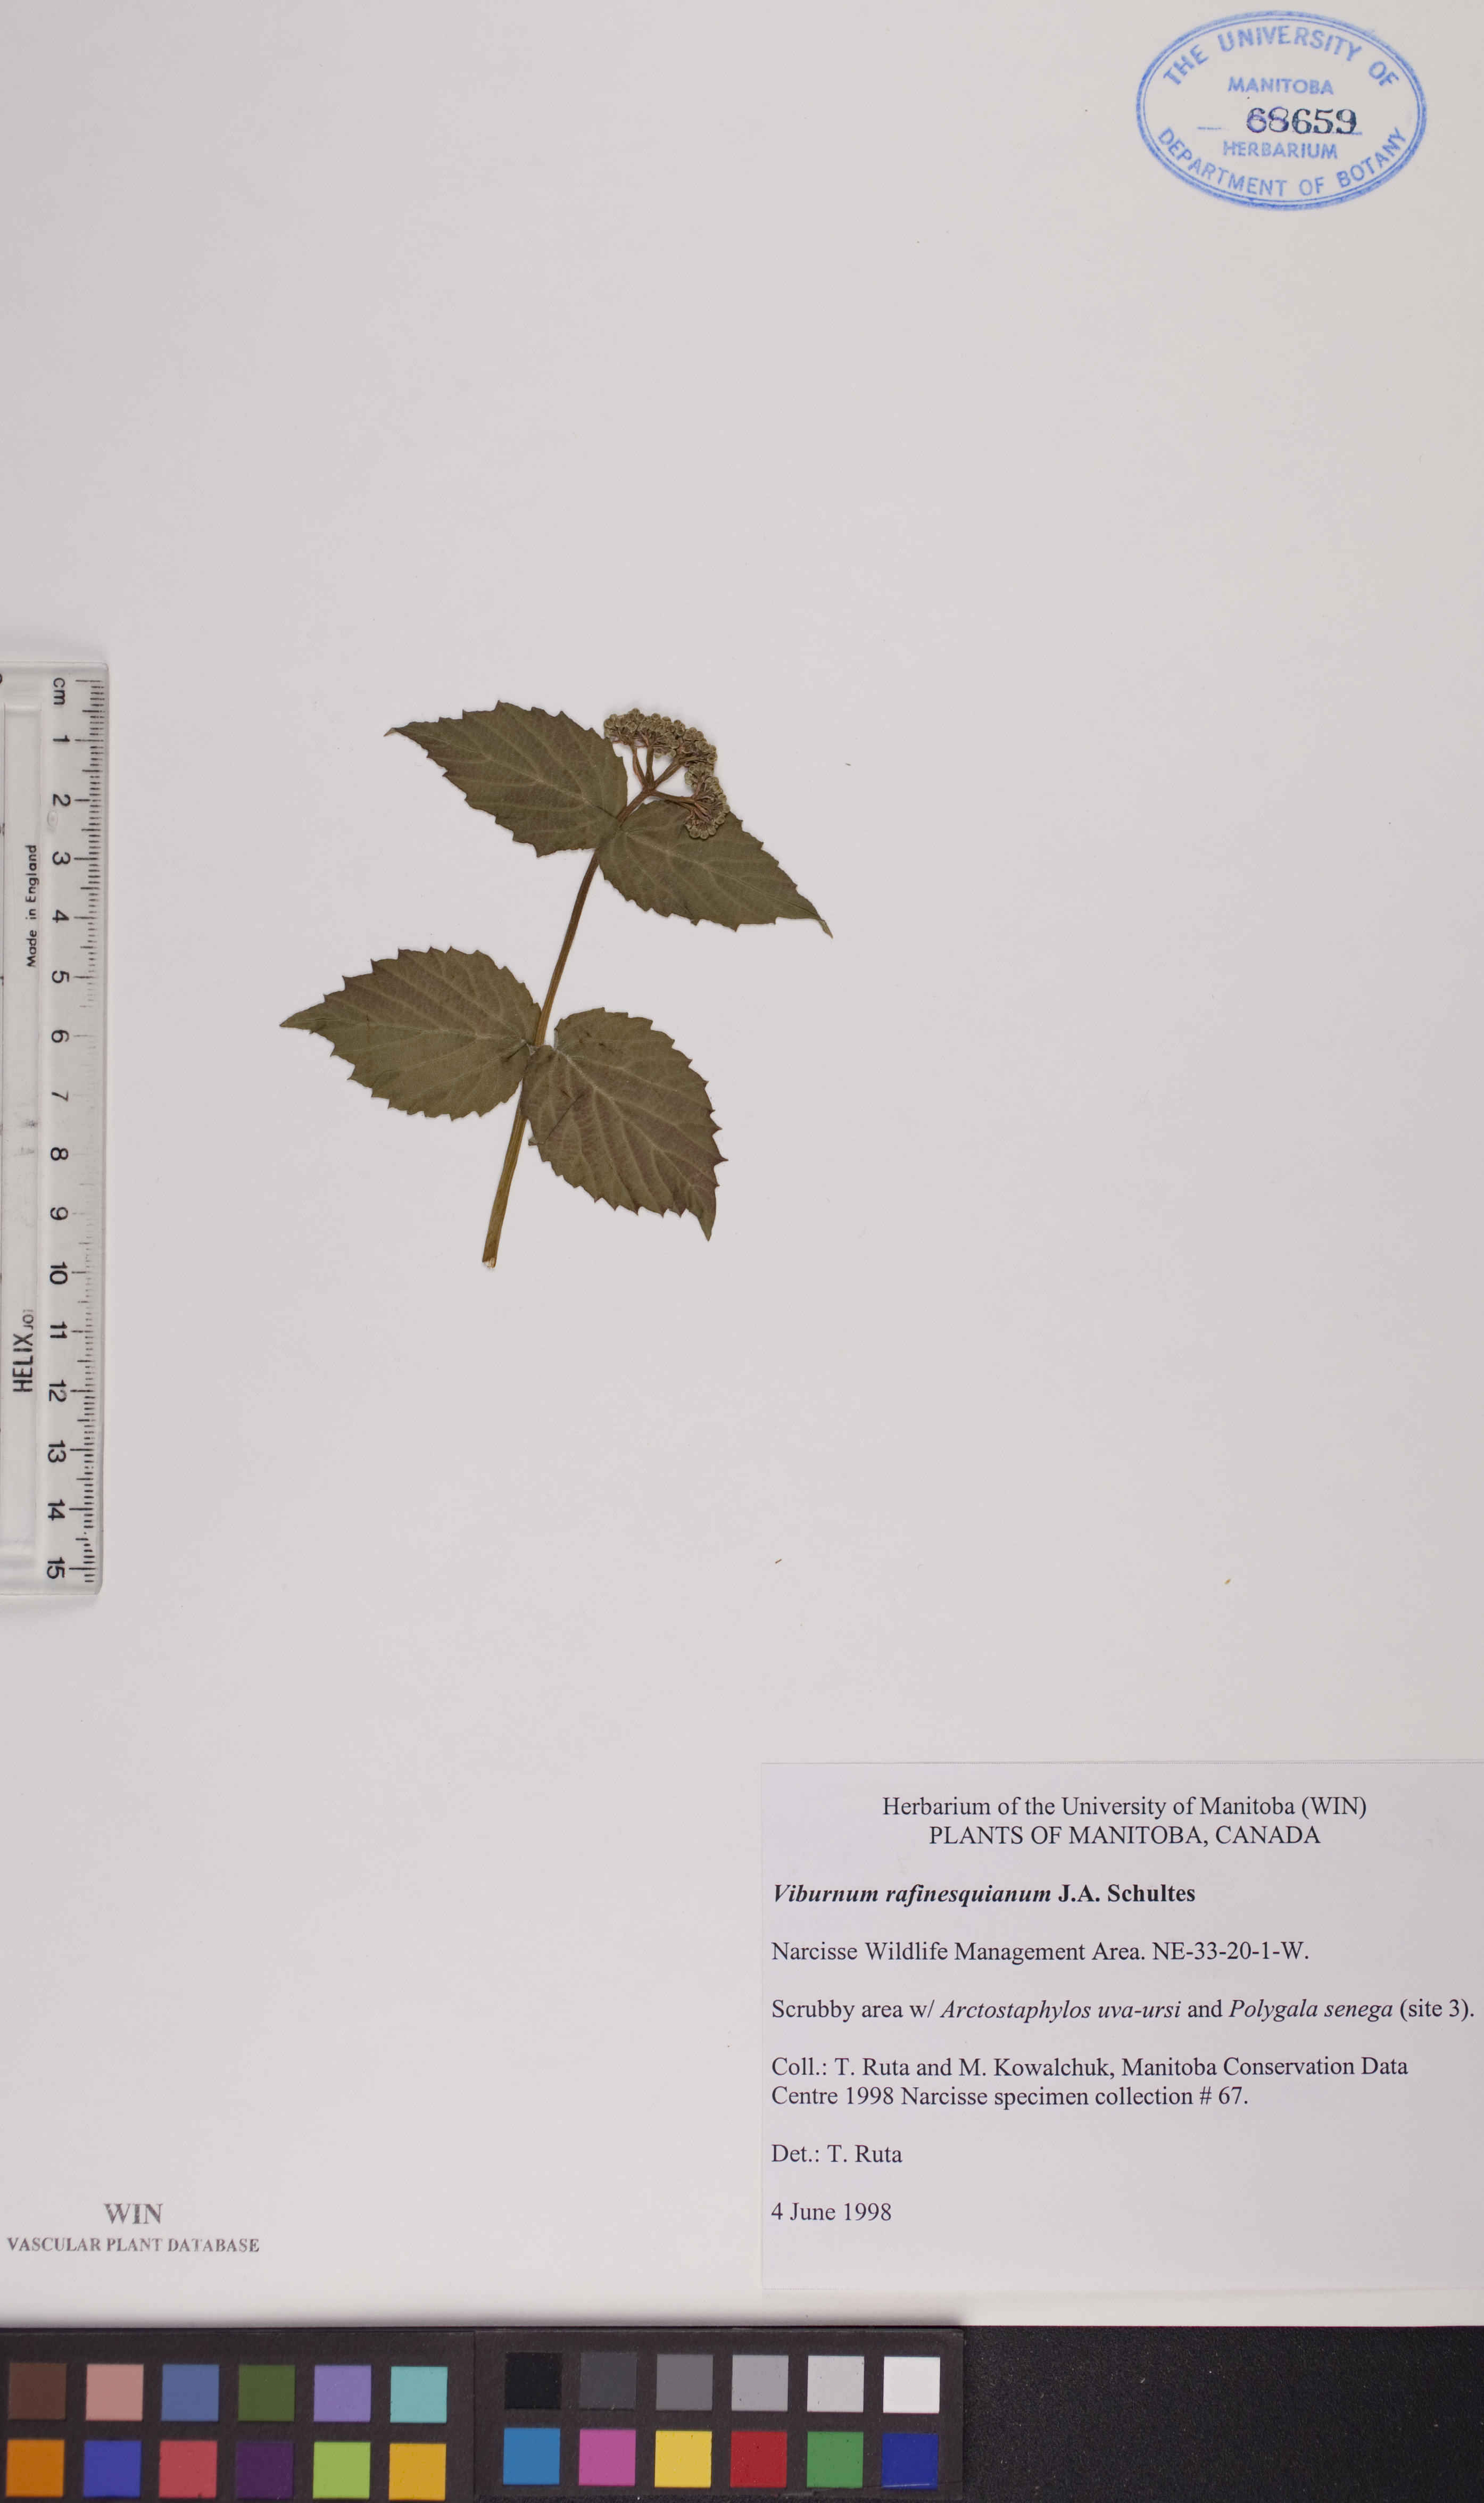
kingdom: Plantae
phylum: Tracheophyta
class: Magnoliopsida
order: Dipsacales
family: Viburnaceae
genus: Viburnum
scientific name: Viburnum rafinesquianum
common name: Downy arrow-wood
